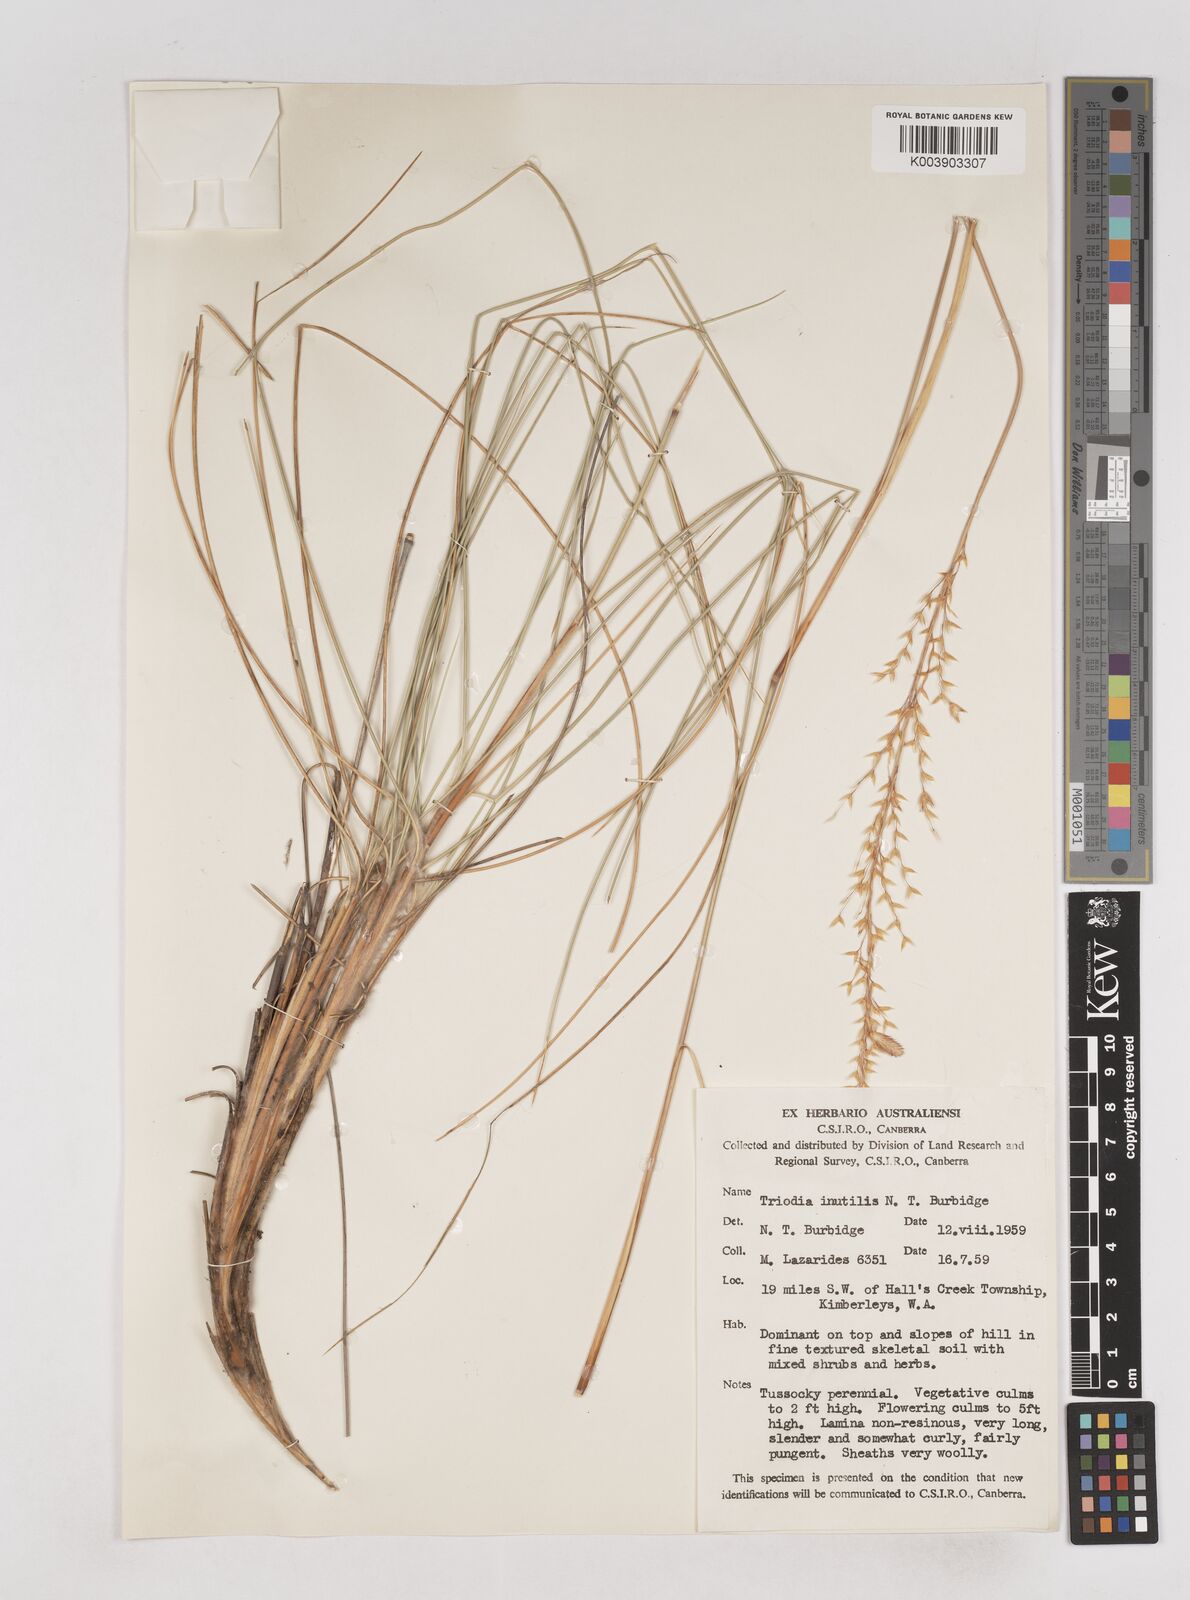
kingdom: Plantae
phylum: Tracheophyta
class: Liliopsida
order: Poales
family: Poaceae
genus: Triodia
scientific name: Triodia inutilis
